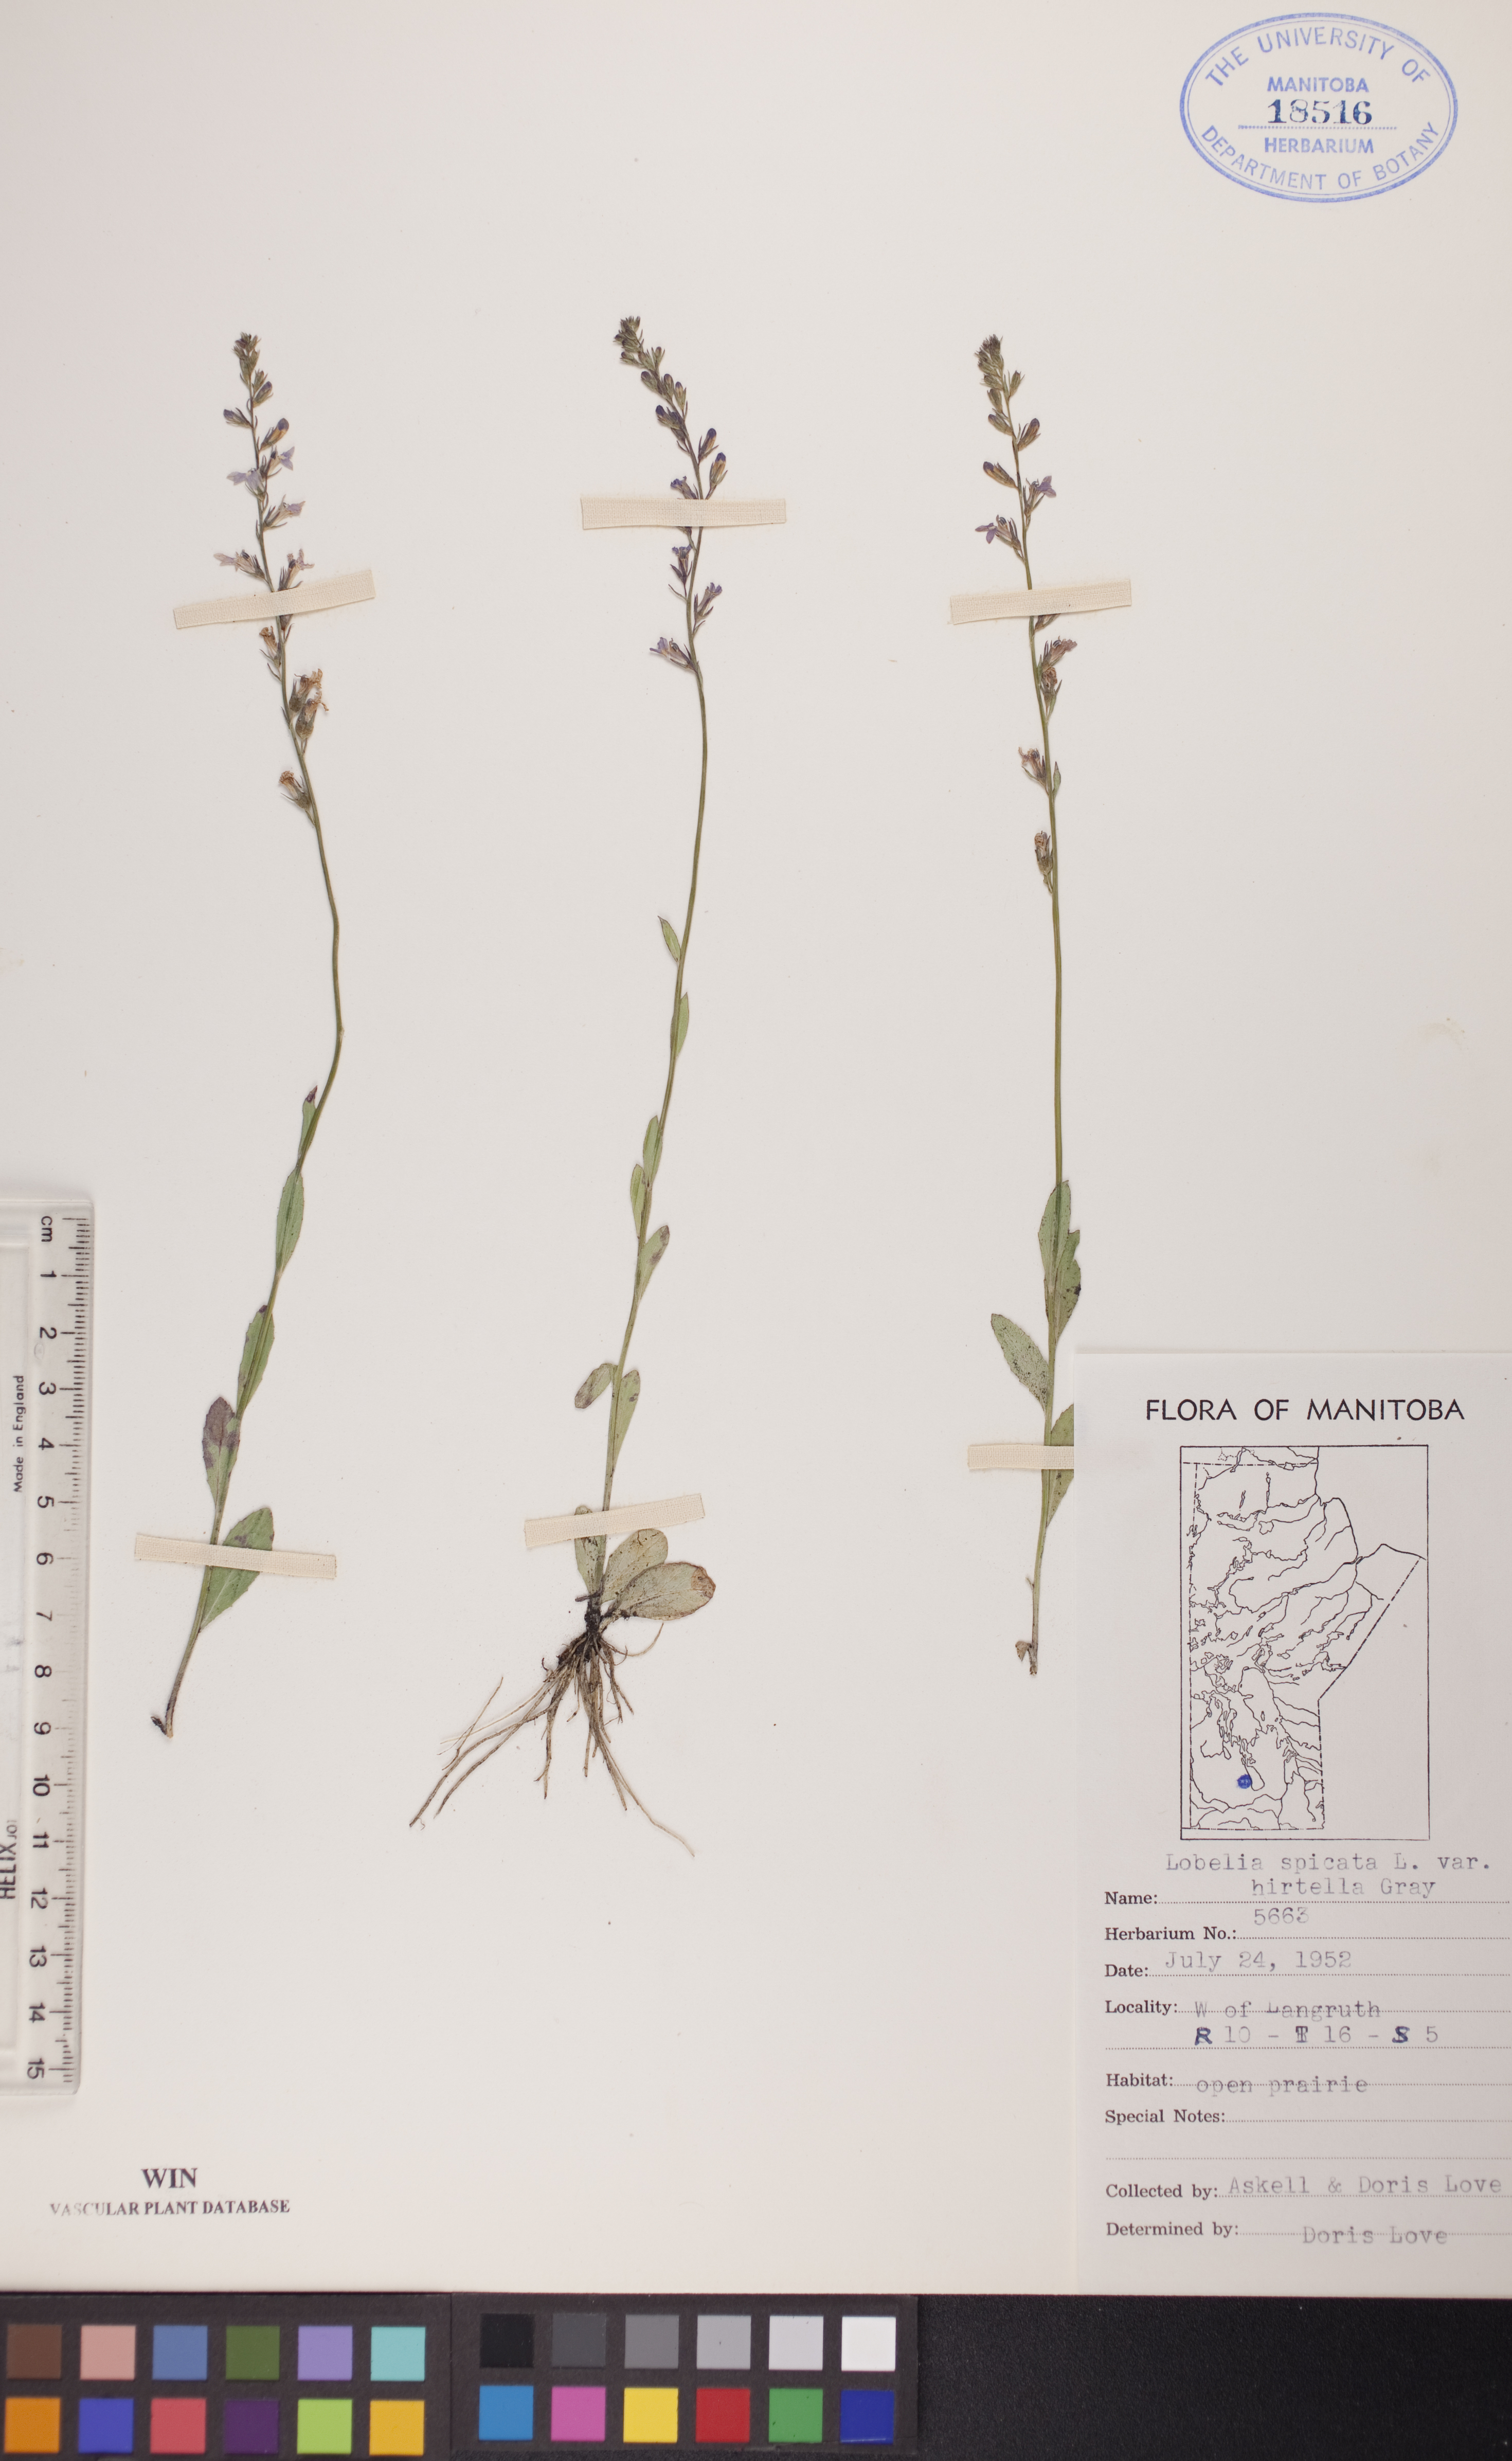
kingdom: Plantae
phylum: Tracheophyta
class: Magnoliopsida
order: Asterales
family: Campanulaceae
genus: Lobelia
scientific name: Lobelia spicata
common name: Pale-spike lobelia
